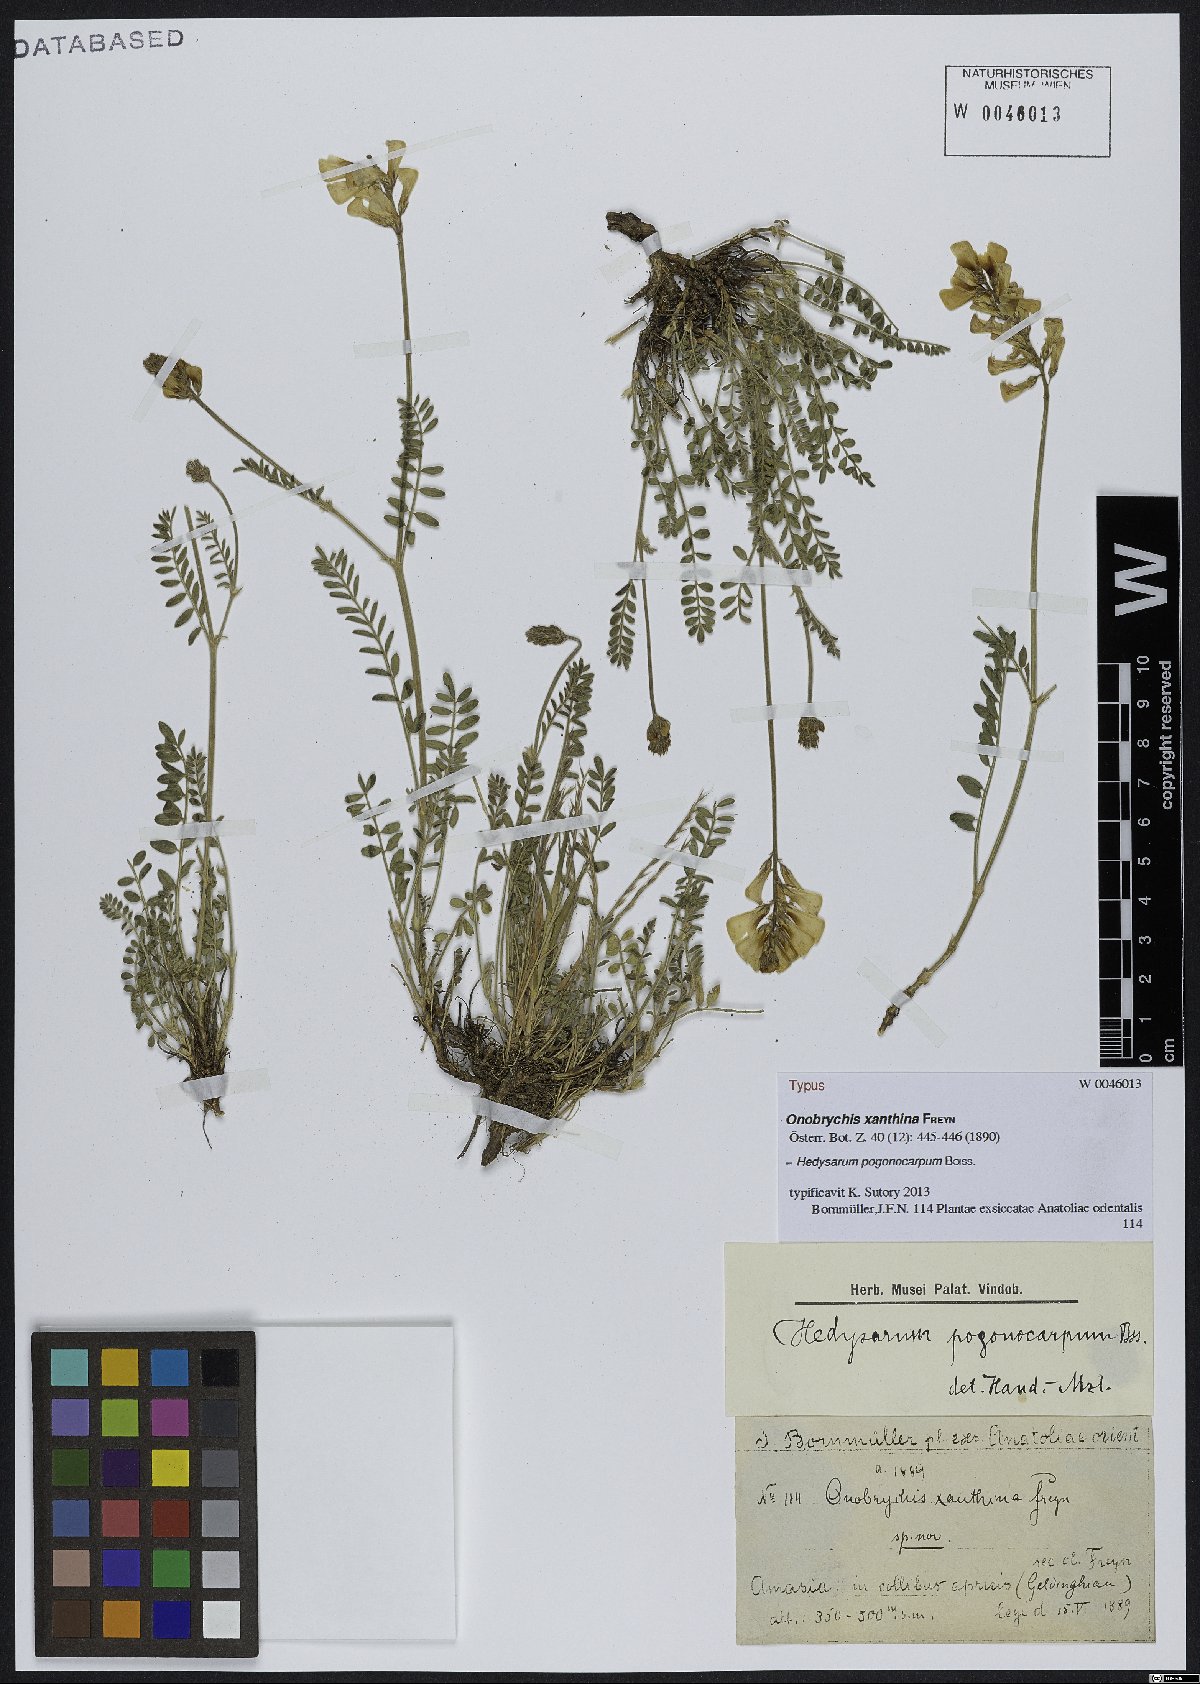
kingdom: Plantae
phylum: Tracheophyta
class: Magnoliopsida
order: Fabales
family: Fabaceae
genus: Hedysarum
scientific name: Hedysarum pogonocarpum
